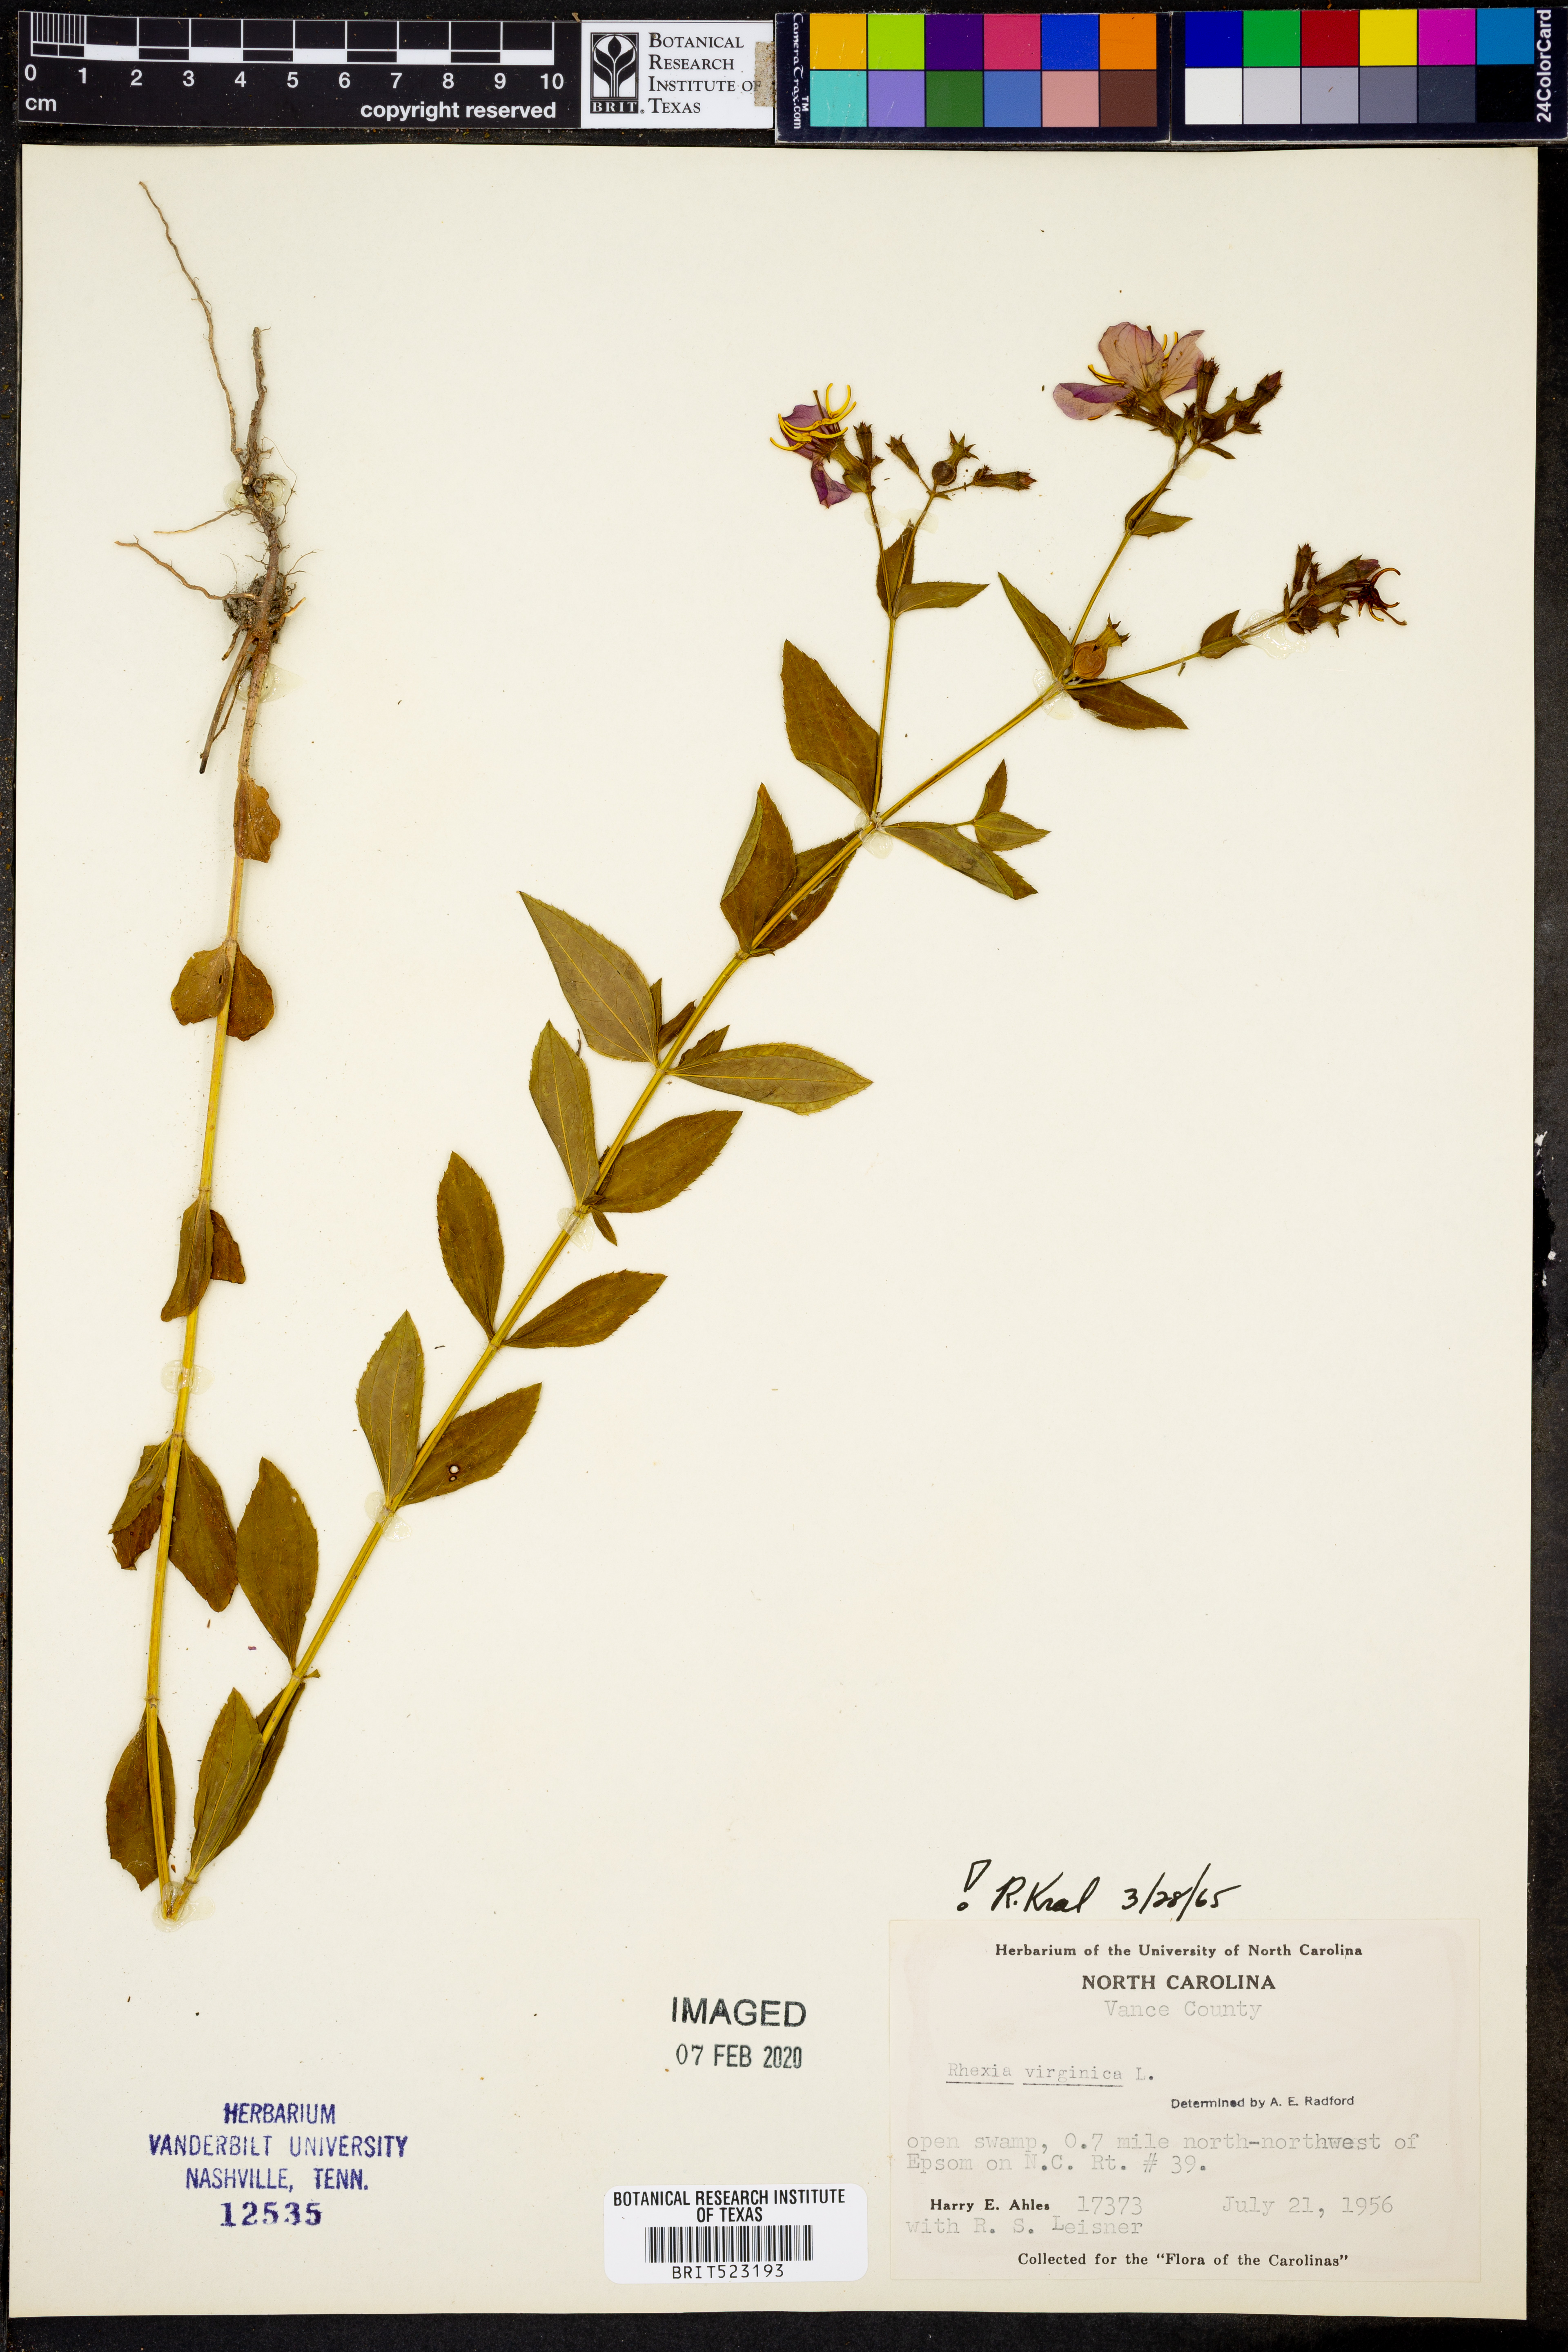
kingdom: Plantae
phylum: Tracheophyta
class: Magnoliopsida
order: Myrtales
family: Melastomataceae
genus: Rhexia
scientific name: Rhexia virginica
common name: Common meadow beauty
